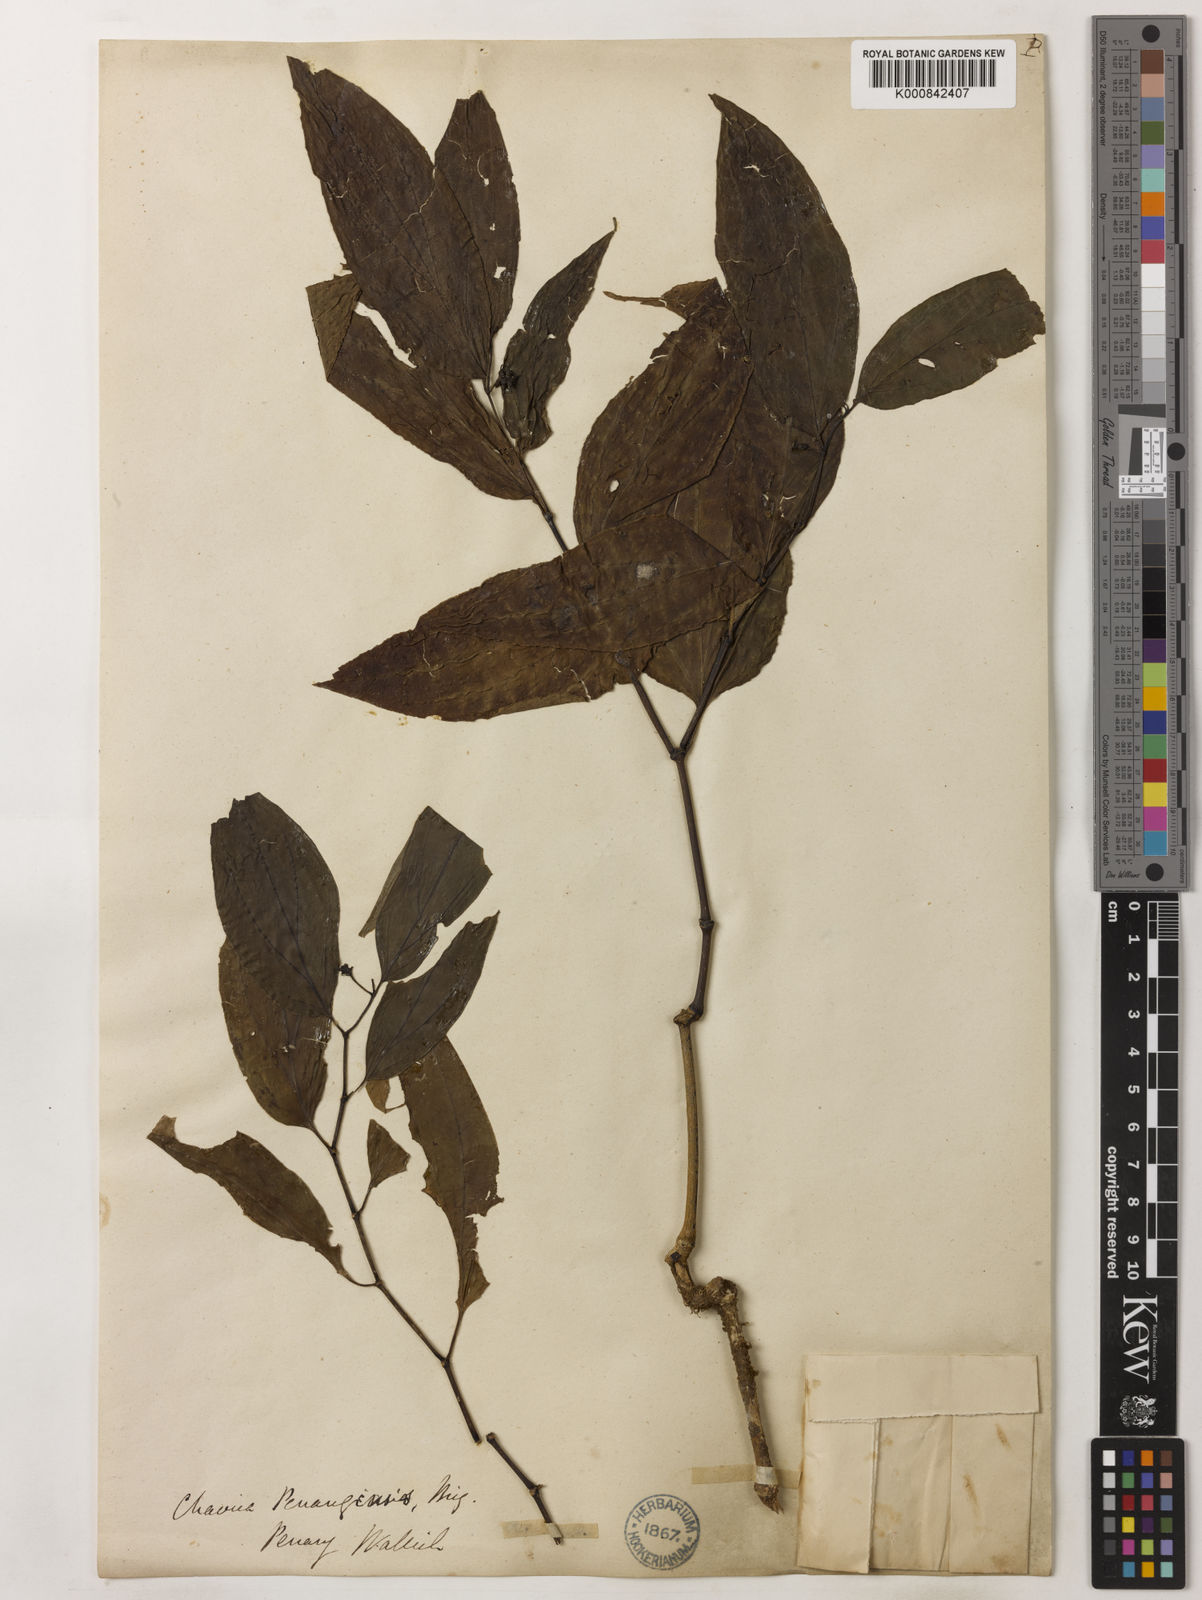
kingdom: Plantae
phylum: Tracheophyta
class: Magnoliopsida
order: Piperales
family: Piperaceae
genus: Piper
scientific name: Piper penangense
